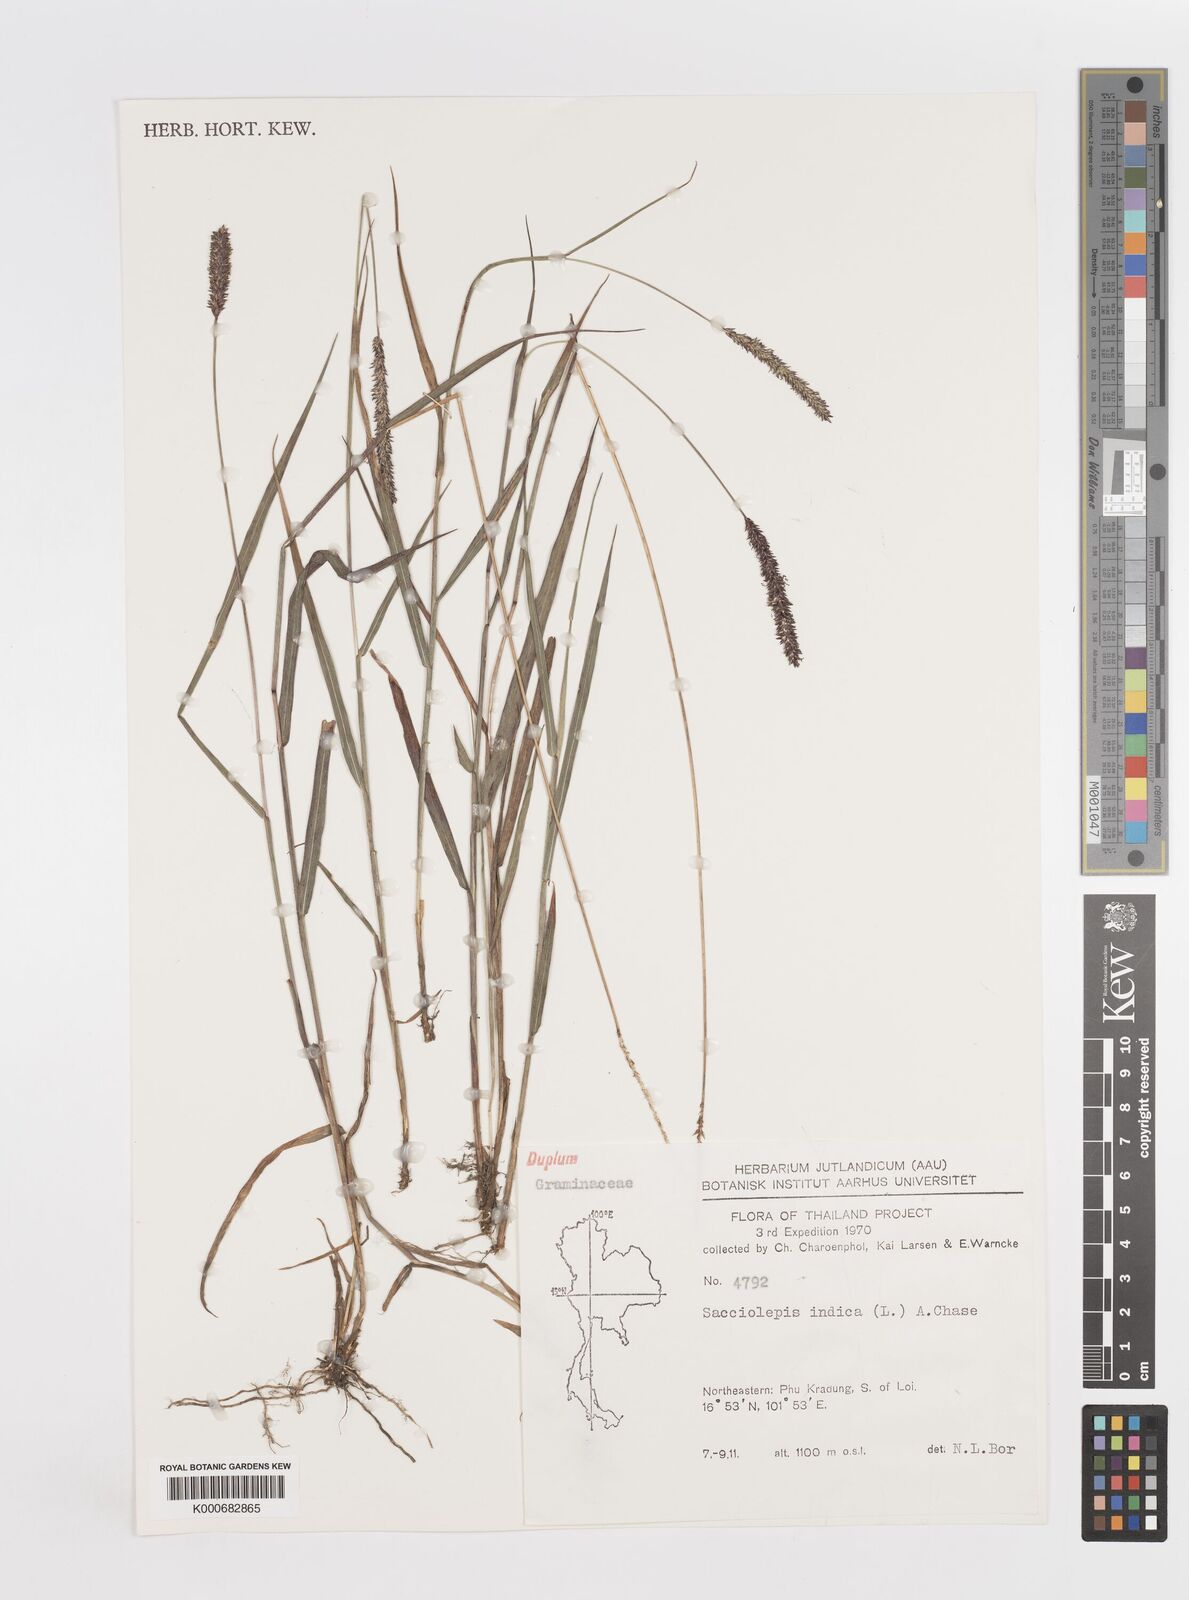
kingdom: Plantae
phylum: Tracheophyta
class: Liliopsida
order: Poales
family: Poaceae
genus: Sacciolepis
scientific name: Sacciolepis indica
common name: Glenwoodgrass
